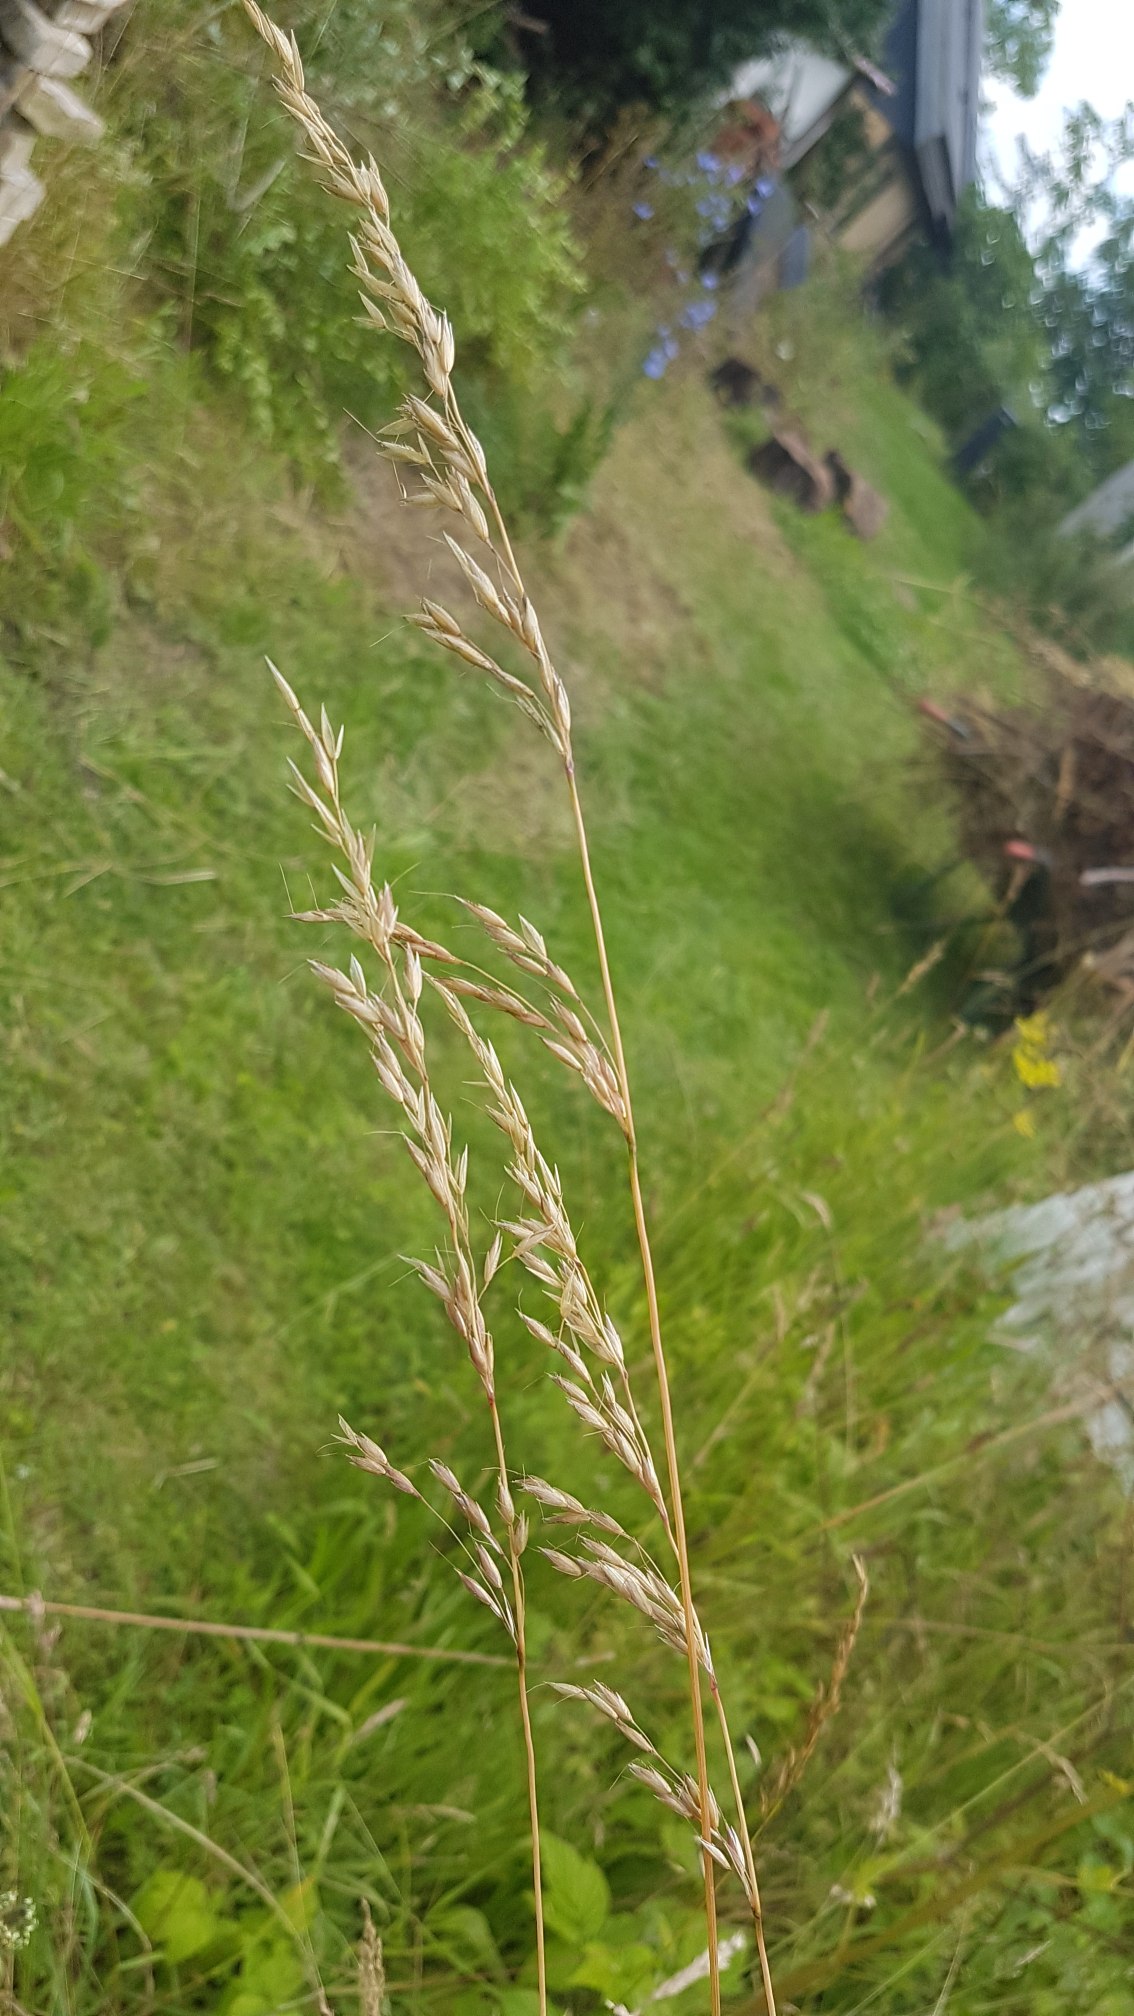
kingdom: Plantae
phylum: Tracheophyta
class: Liliopsida
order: Poales
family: Poaceae
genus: Arrhenatherum
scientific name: Arrhenatherum elatius
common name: Draphavre
